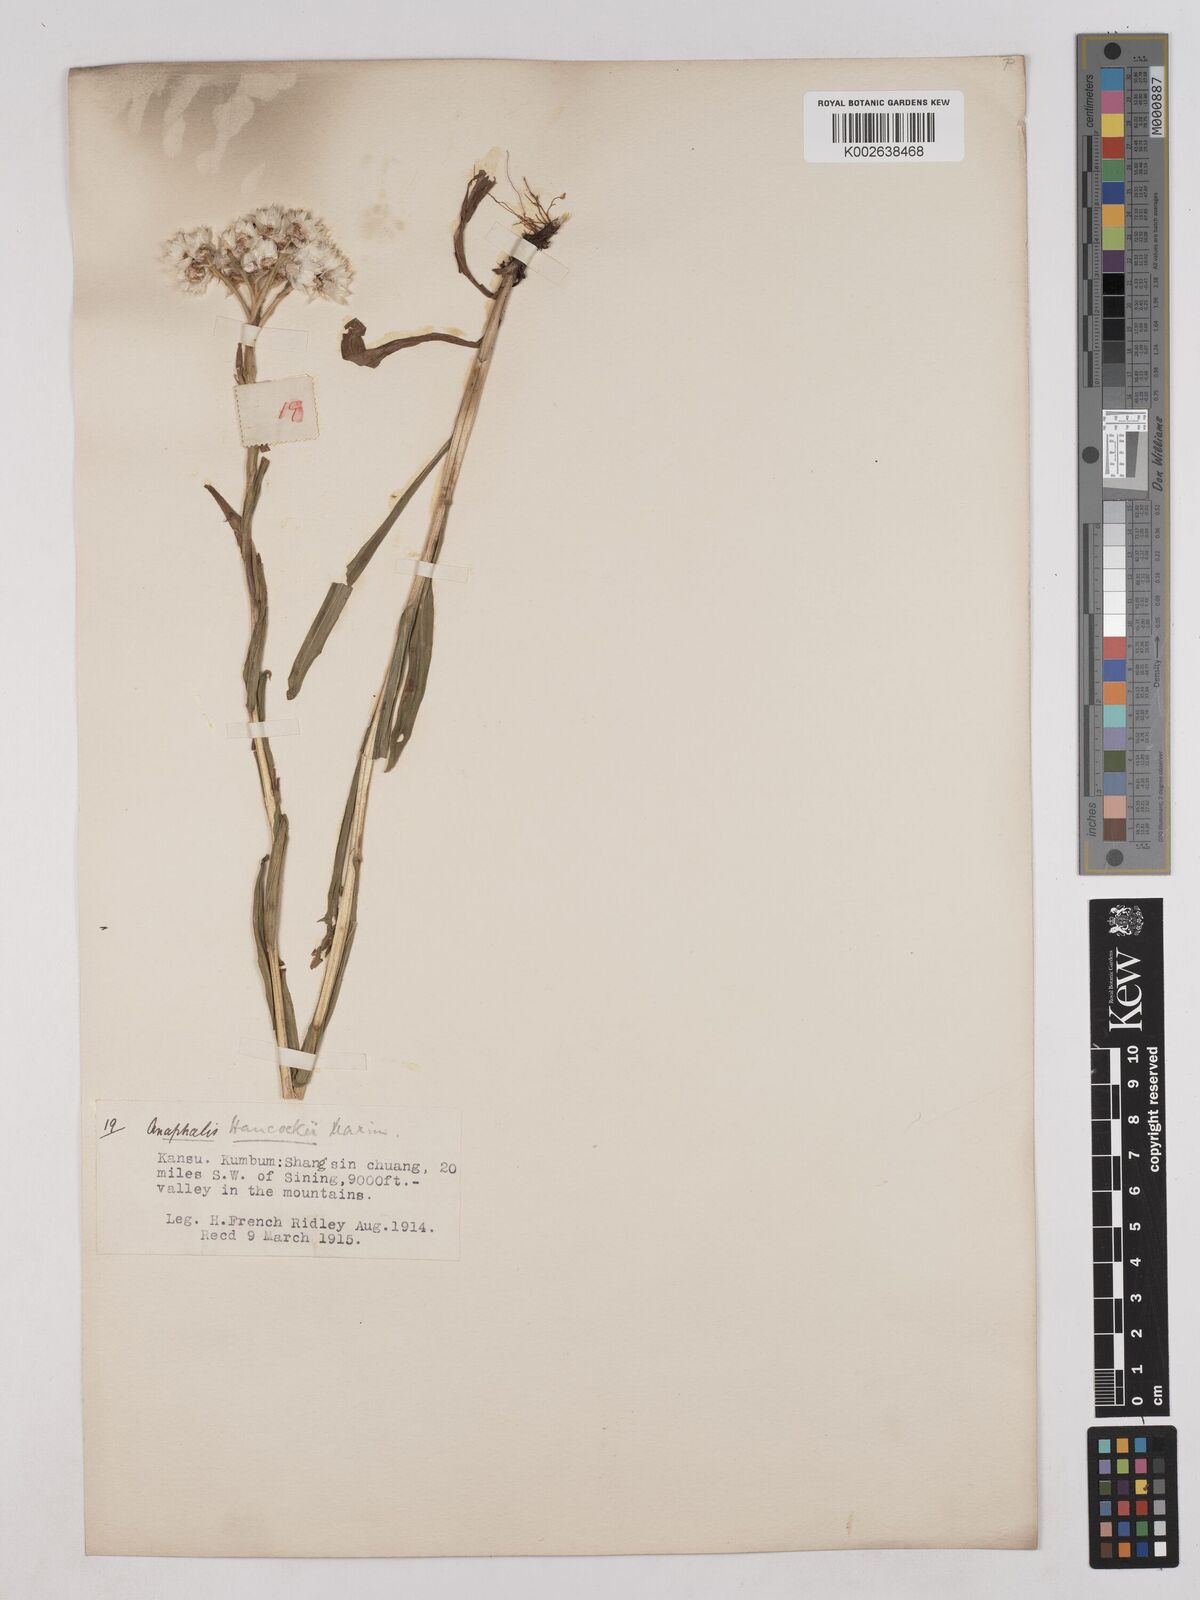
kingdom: Plantae
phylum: Tracheophyta
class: Magnoliopsida
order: Asterales
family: Asteraceae
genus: Anaphalis
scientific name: Anaphalis hancockii
